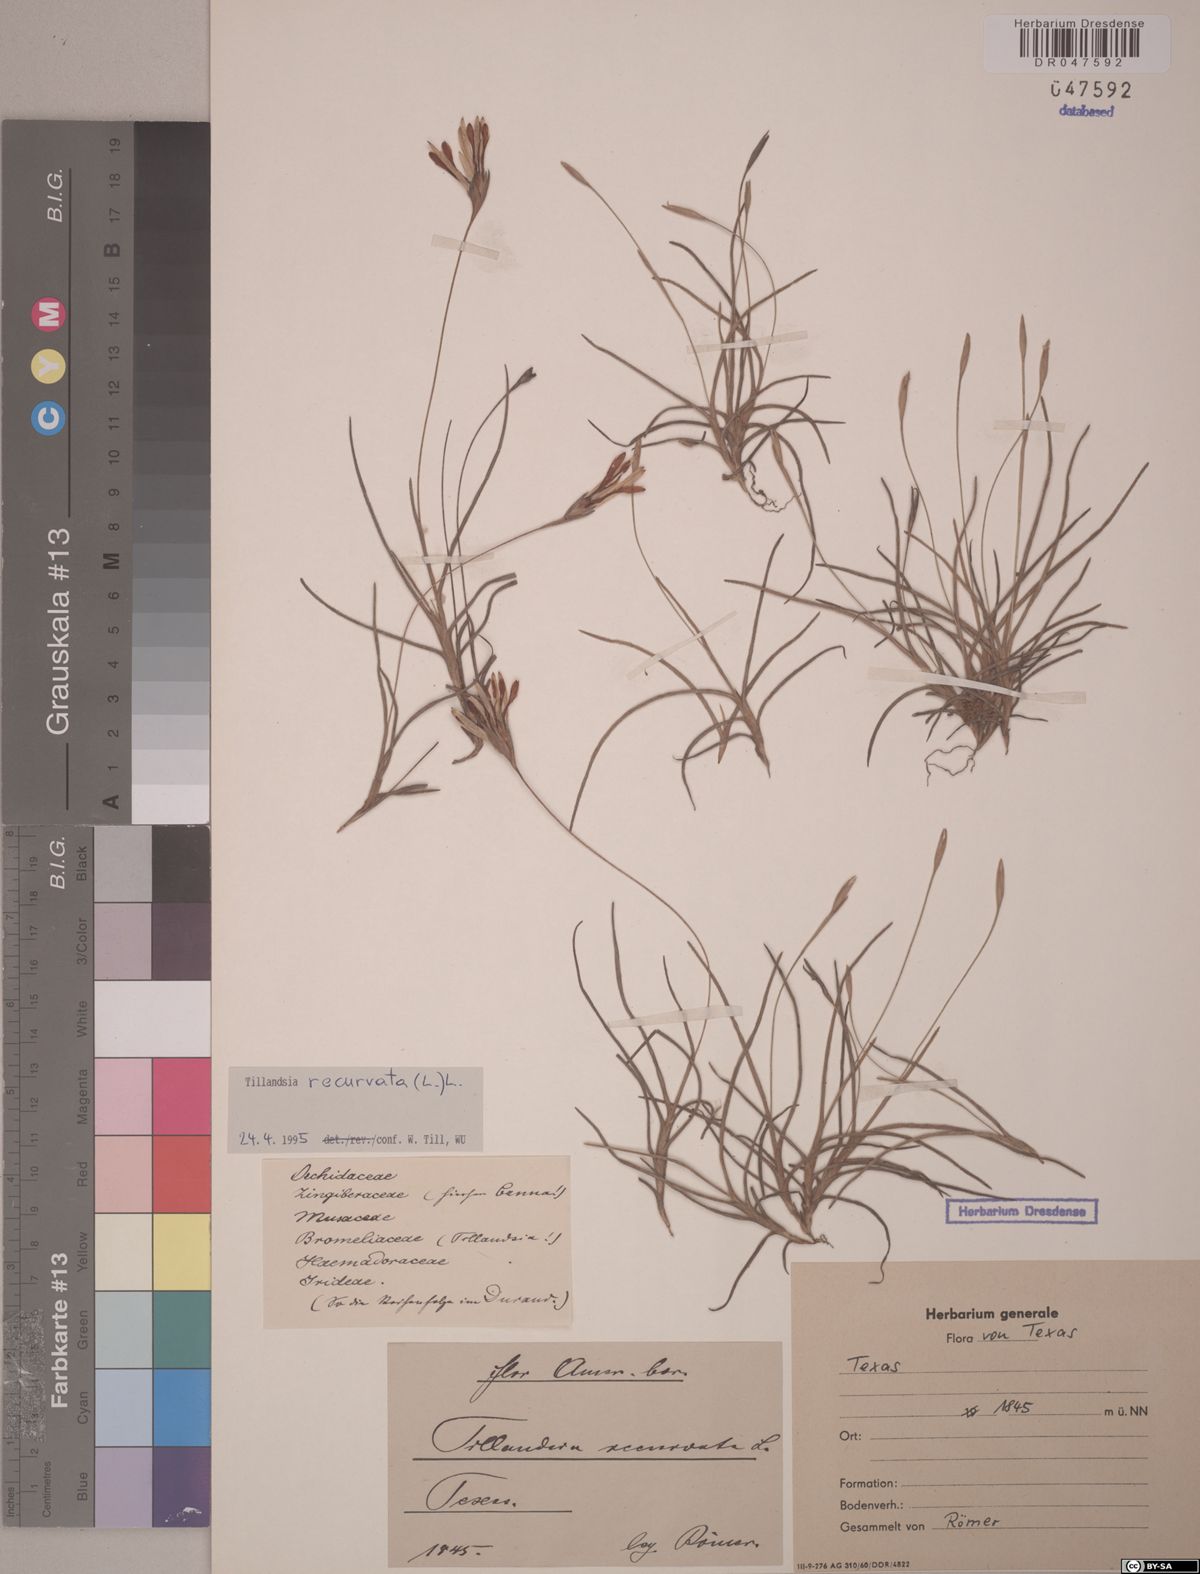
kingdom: Plantae
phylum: Tracheophyta
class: Liliopsida
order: Poales
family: Bromeliaceae
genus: Tillandsia
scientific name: Tillandsia recurvata
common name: Small ballmoss
